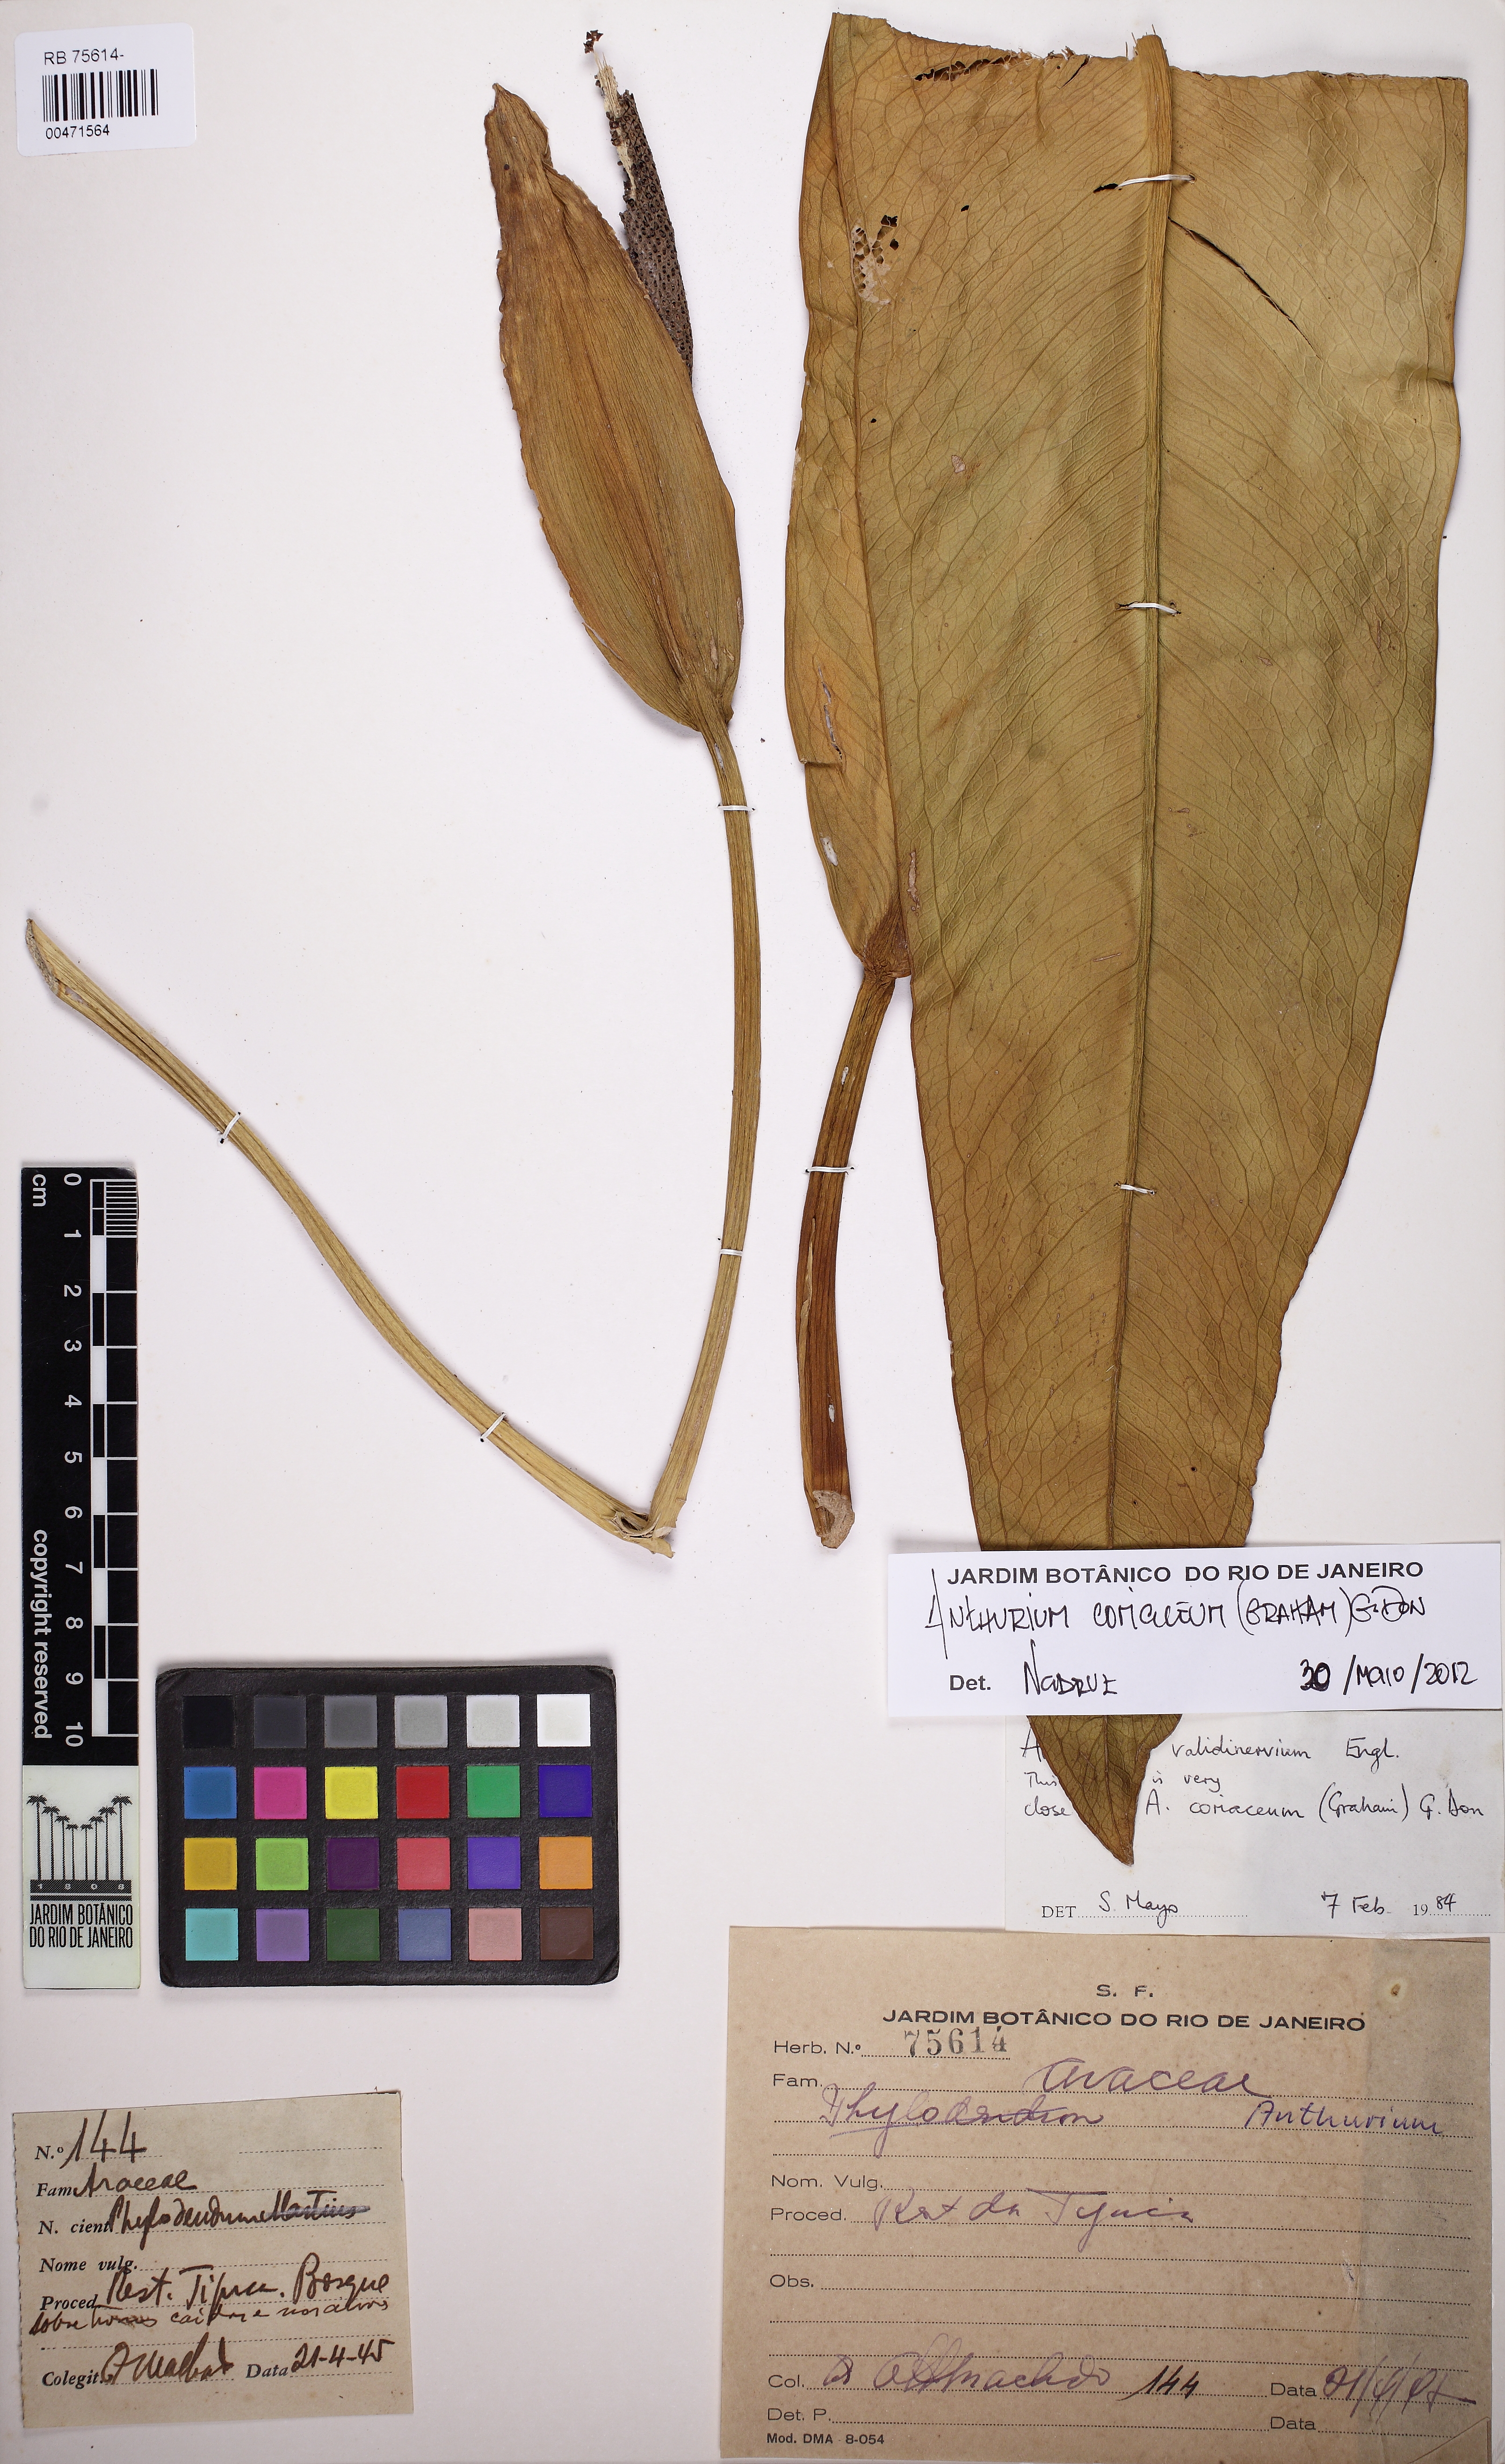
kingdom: Plantae
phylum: Tracheophyta
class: Liliopsida
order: Alismatales
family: Araceae
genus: Anthurium
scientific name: Anthurium coriaceum
